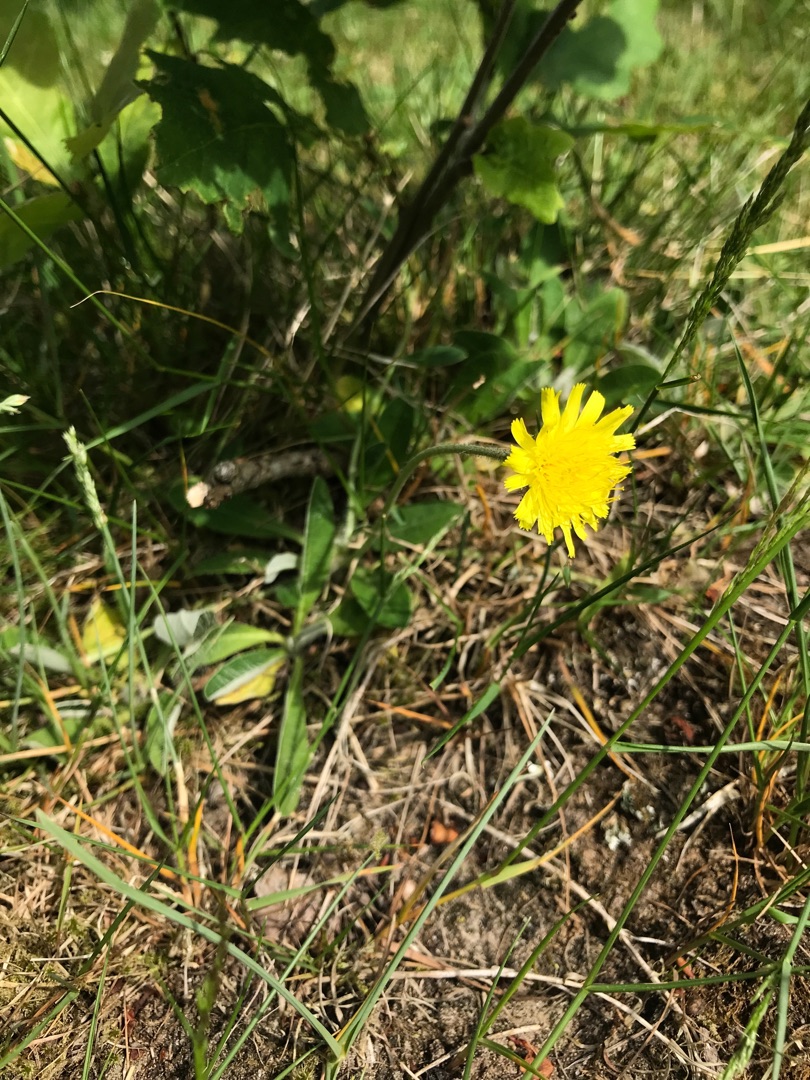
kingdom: Plantae
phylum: Tracheophyta
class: Magnoliopsida
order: Asterales
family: Asteraceae
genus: Pilosella
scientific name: Pilosella officinarum
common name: Håret høgeurt
